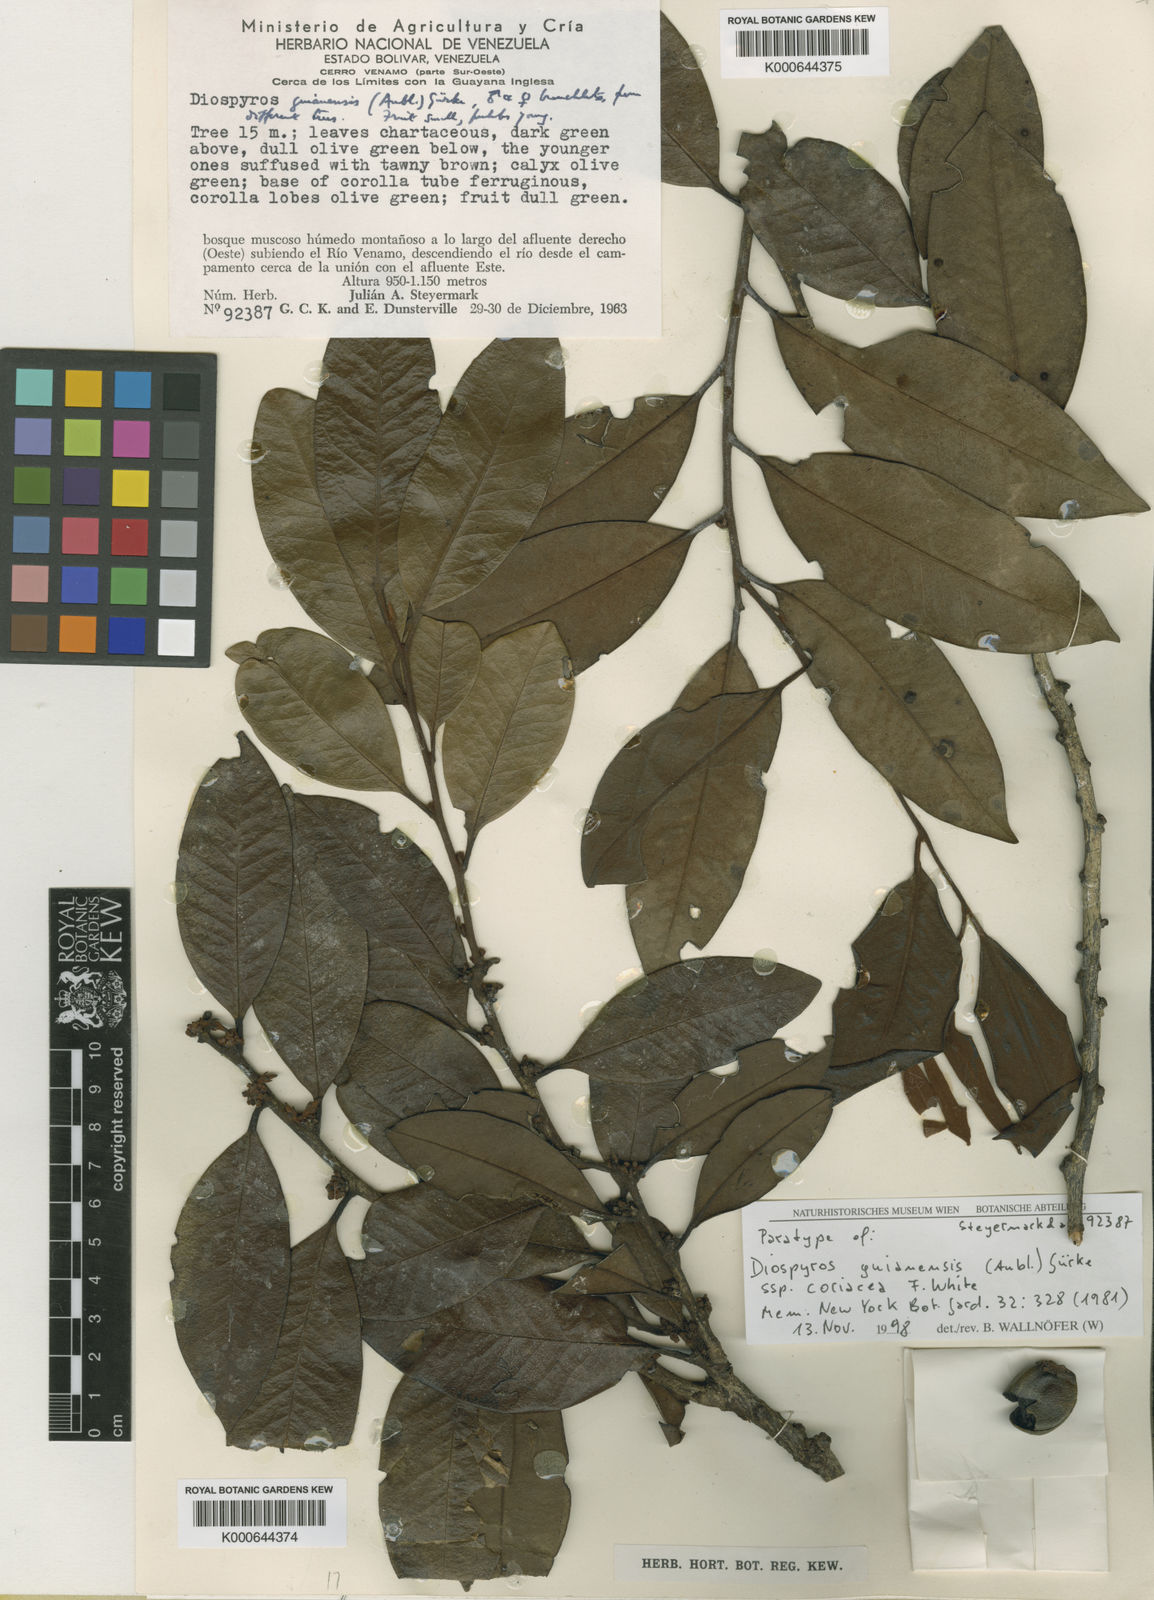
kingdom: Plantae
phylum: Tracheophyta
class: Magnoliopsida
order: Ericales
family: Ebenaceae
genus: Diospyros
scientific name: Diospyros
